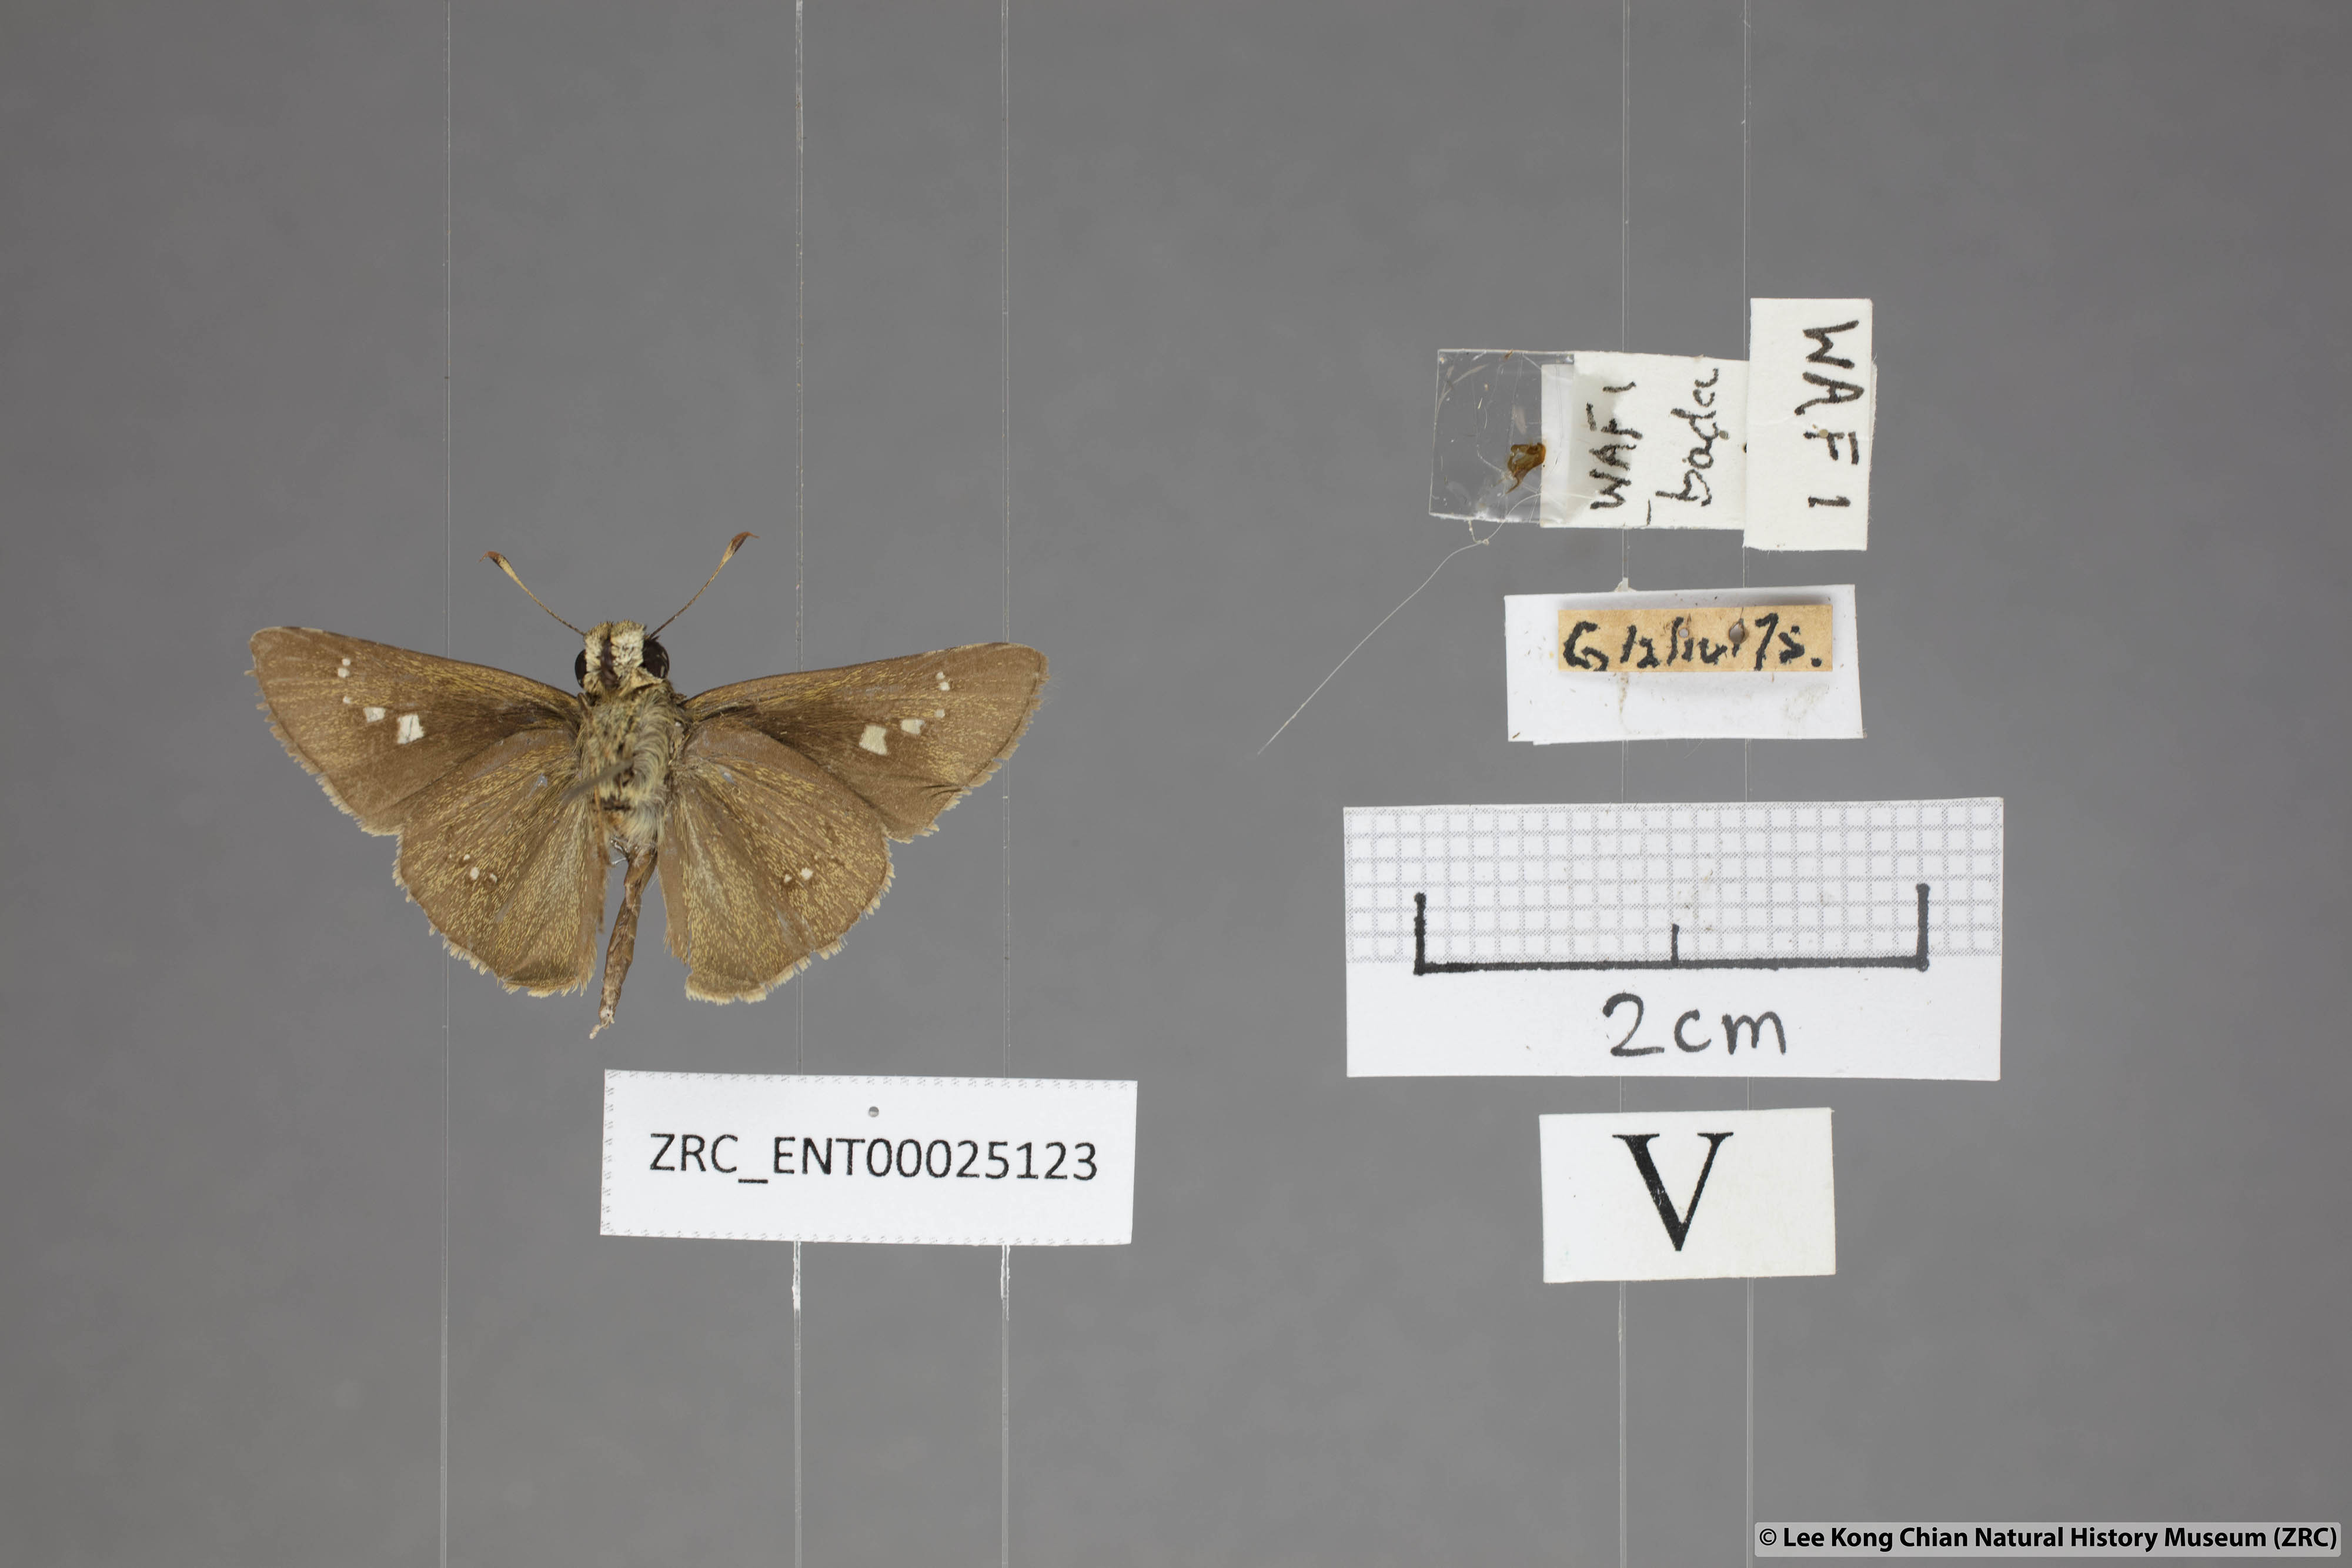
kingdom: Animalia
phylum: Arthropoda
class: Insecta
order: Lepidoptera
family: Hesperiidae
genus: Parnara
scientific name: Parnara naso
